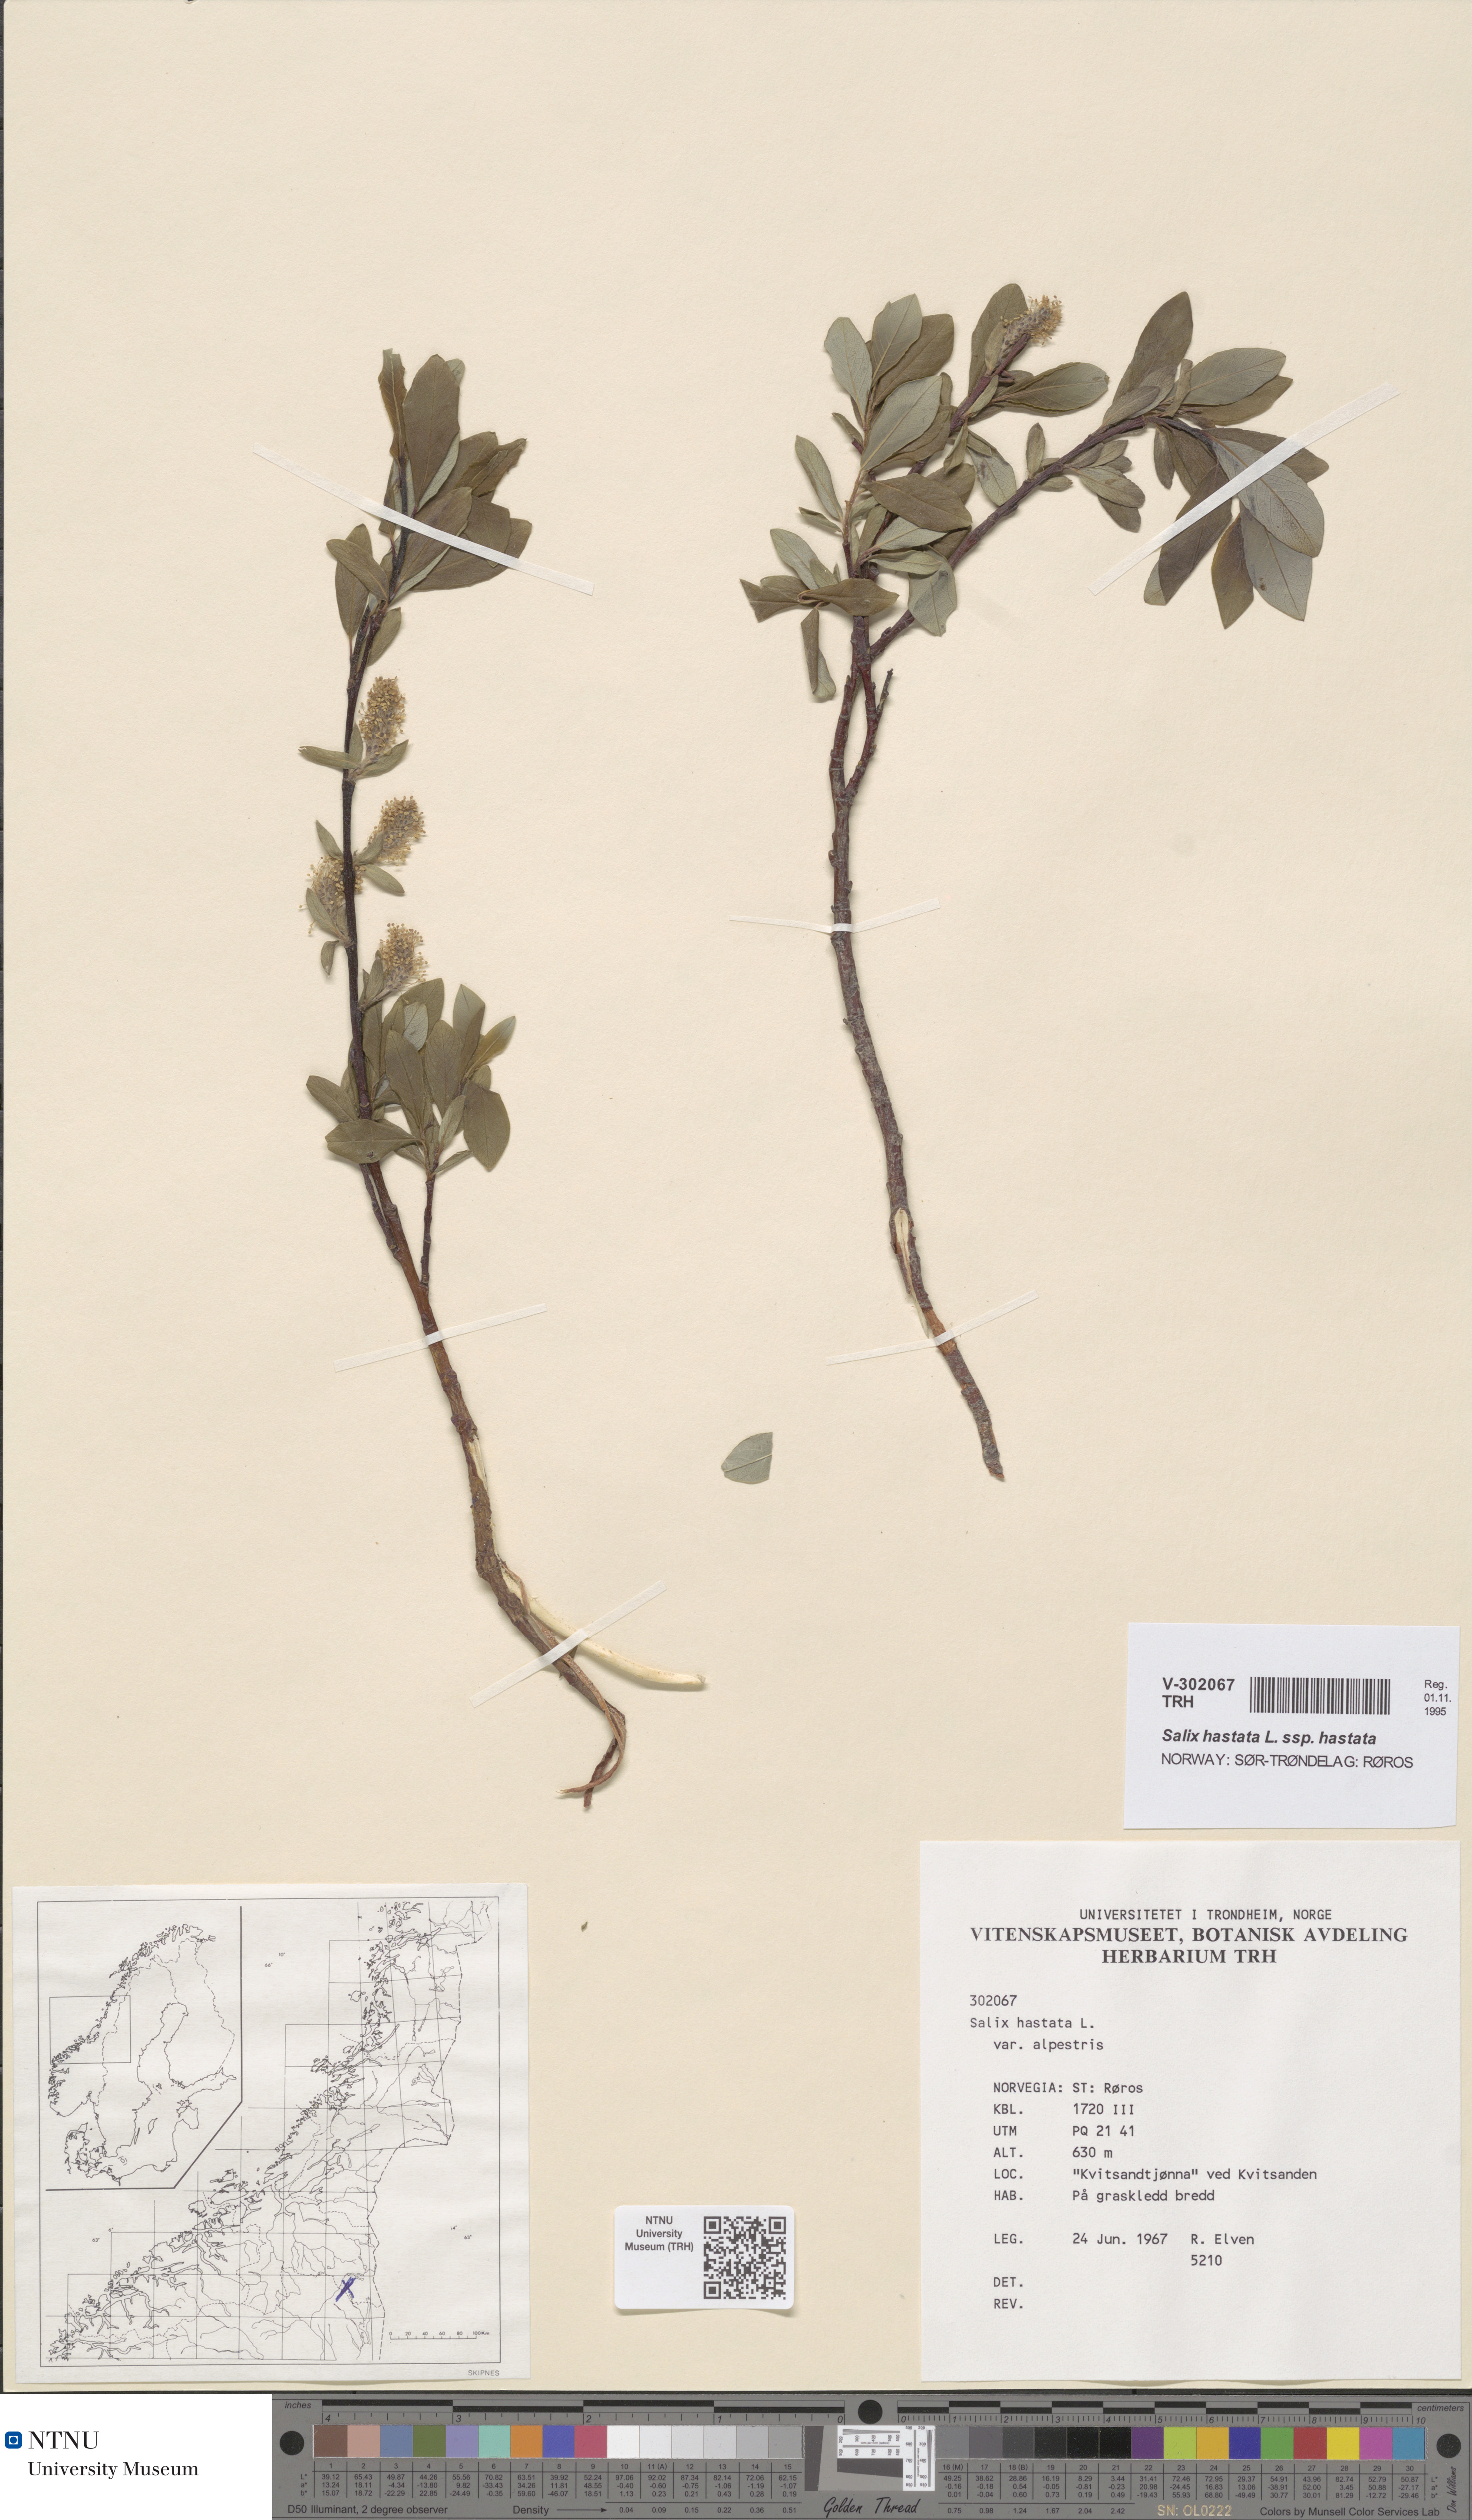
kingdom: Plantae
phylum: Tracheophyta
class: Magnoliopsida
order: Malpighiales
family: Salicaceae
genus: Salix
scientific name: Salix hastata
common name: Halberd willow
